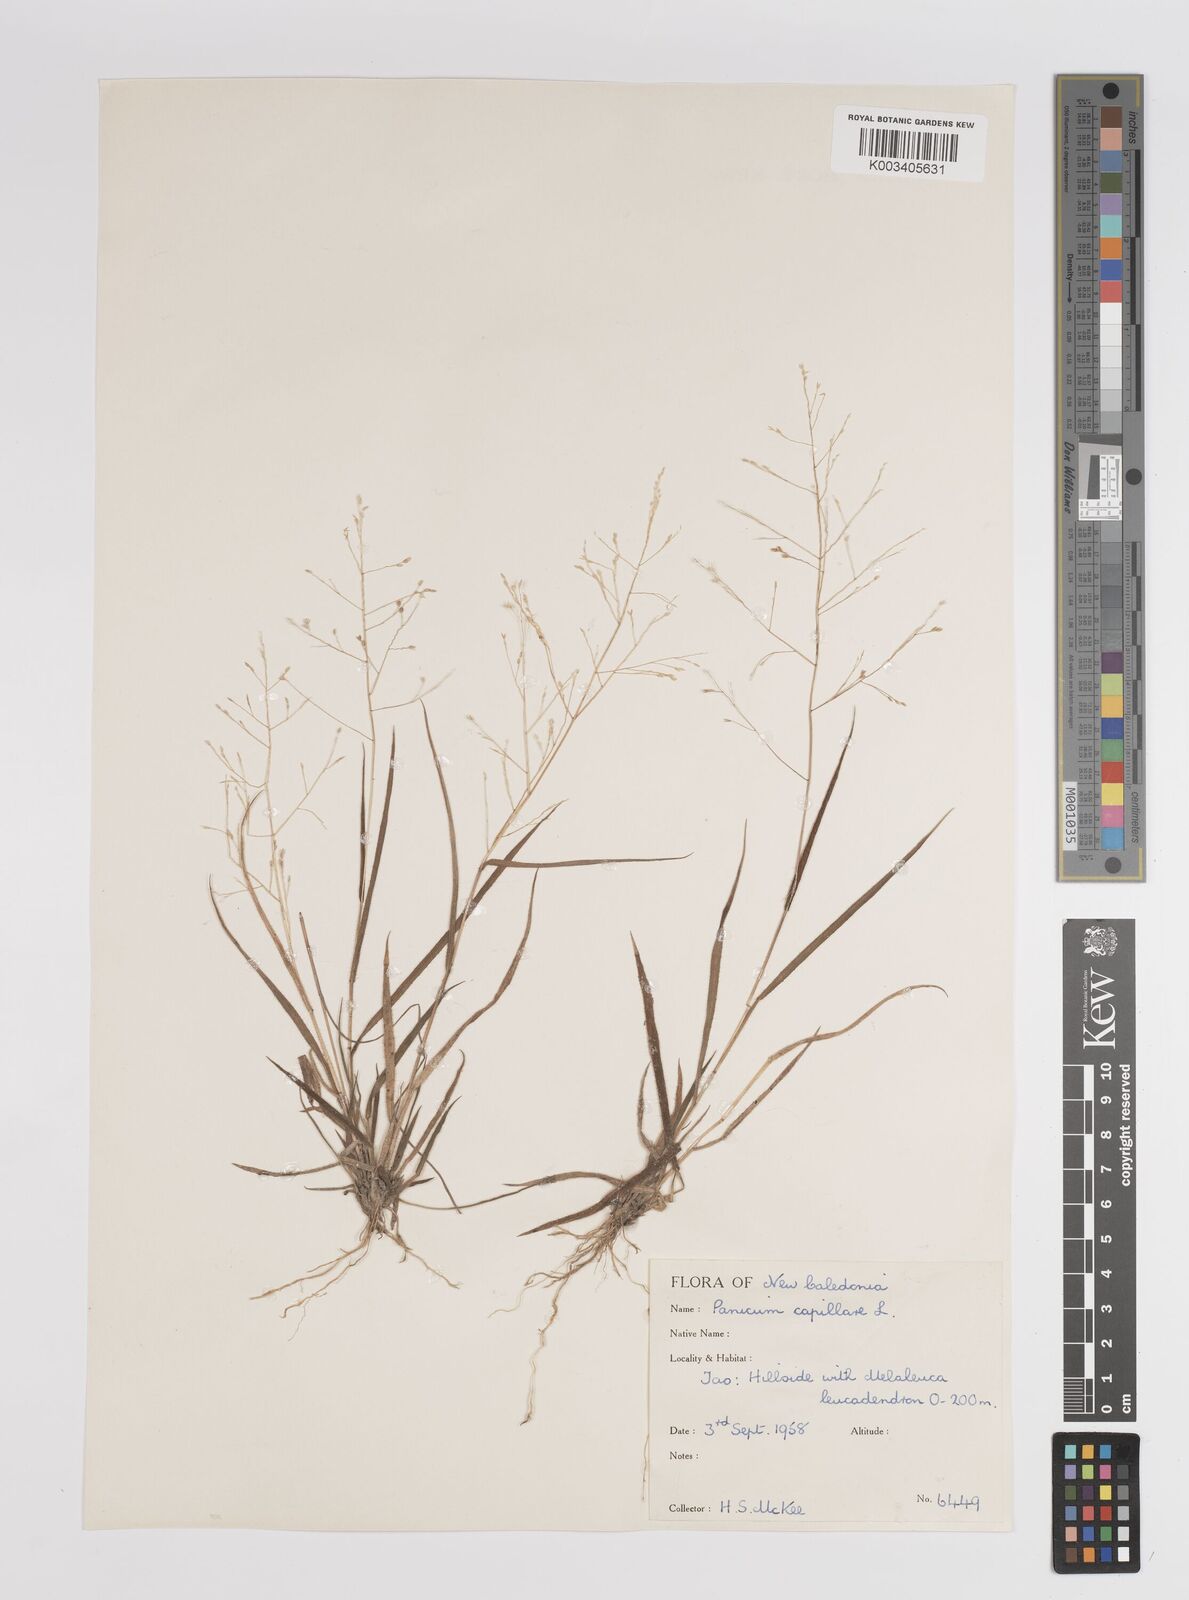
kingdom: Plantae
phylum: Tracheophyta
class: Liliopsida
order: Poales
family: Poaceae
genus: Panicum
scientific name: Panicum capillare
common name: Witch-grass
